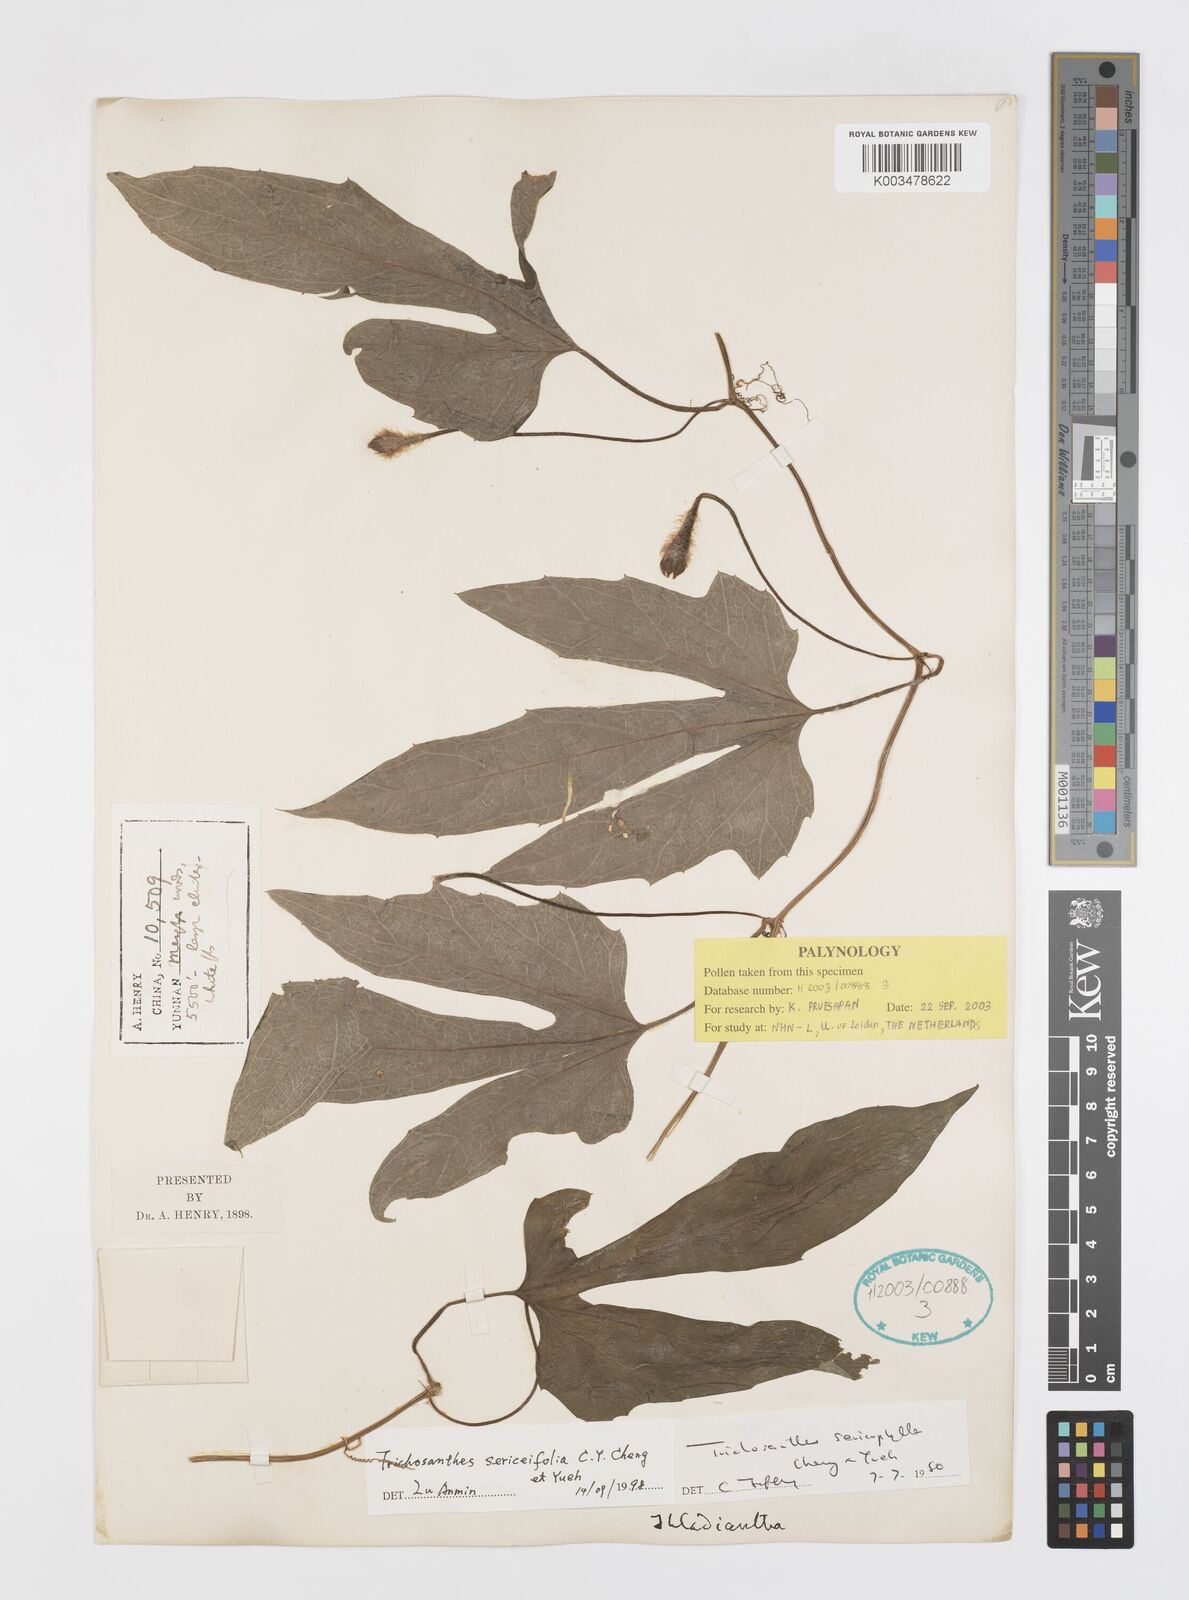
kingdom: Plantae
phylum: Tracheophyta
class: Magnoliopsida
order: Cucurbitales
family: Cucurbitaceae
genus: Trichosanthes
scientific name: Trichosanthes
